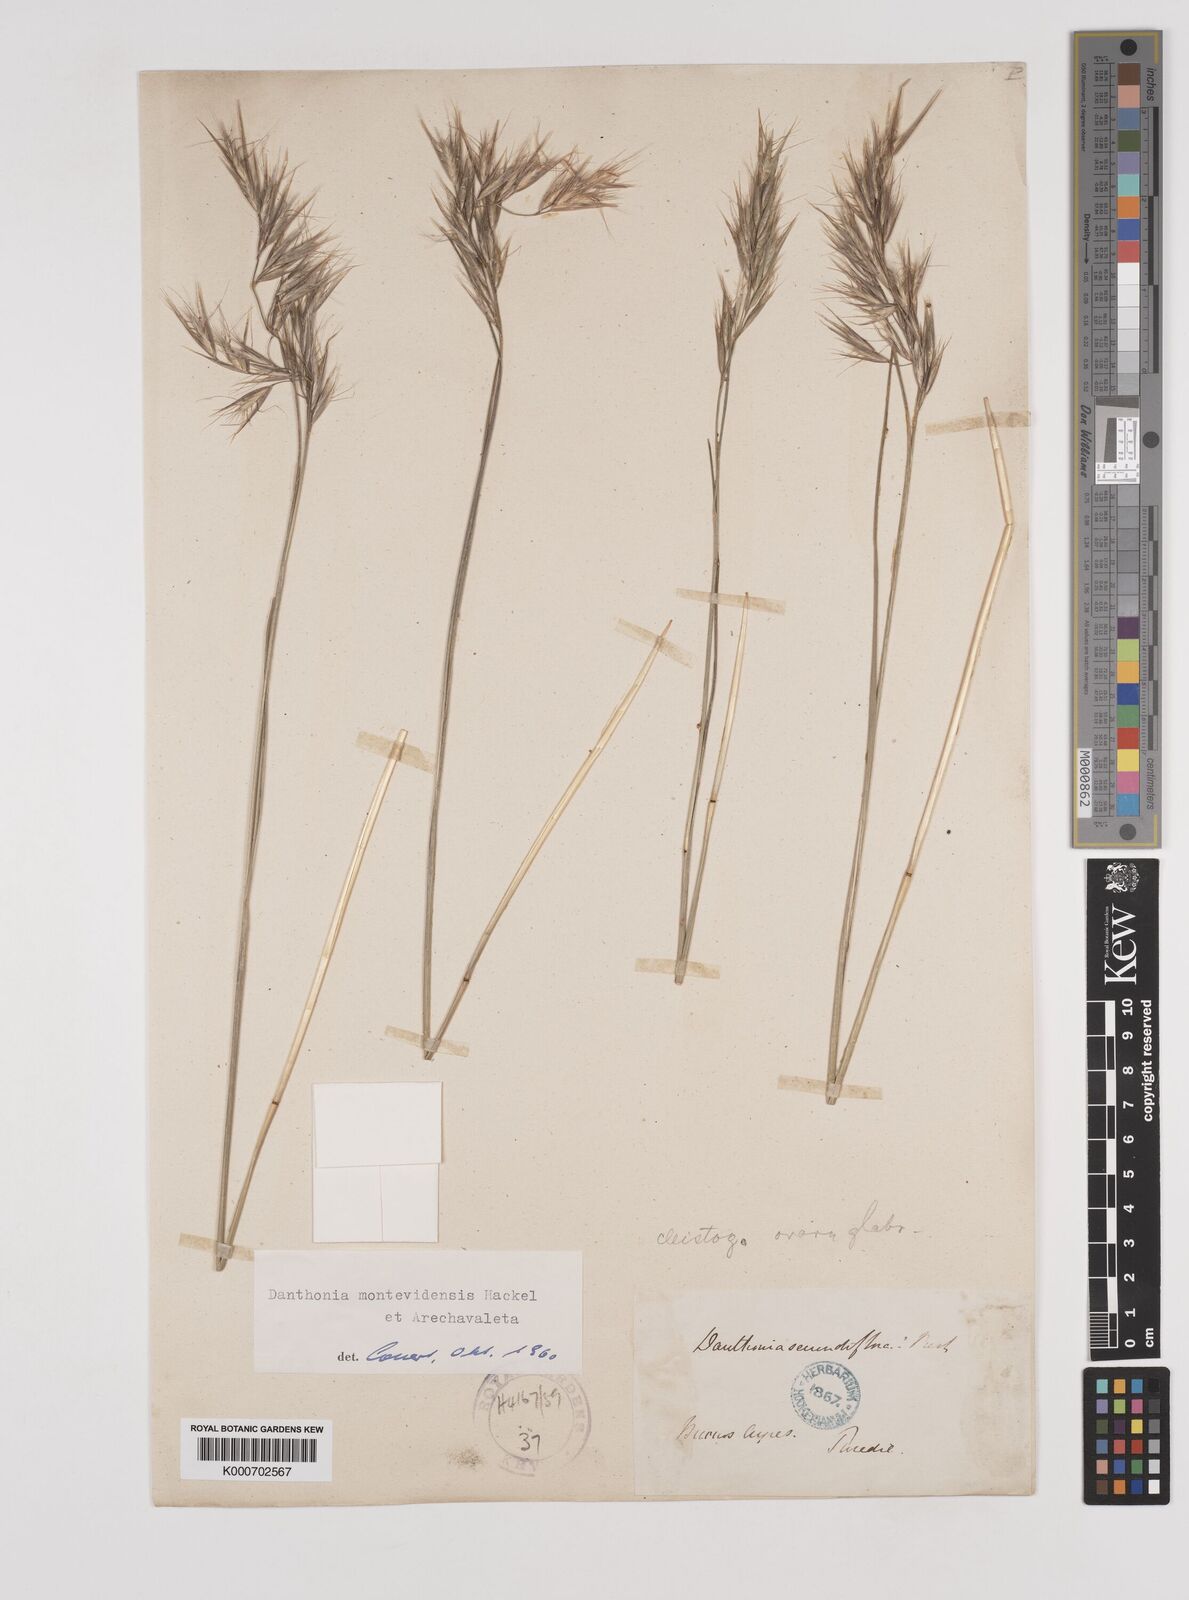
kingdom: Plantae
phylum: Tracheophyta
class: Liliopsida
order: Poales
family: Poaceae
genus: Danthonia
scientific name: Danthonia montevidensis
